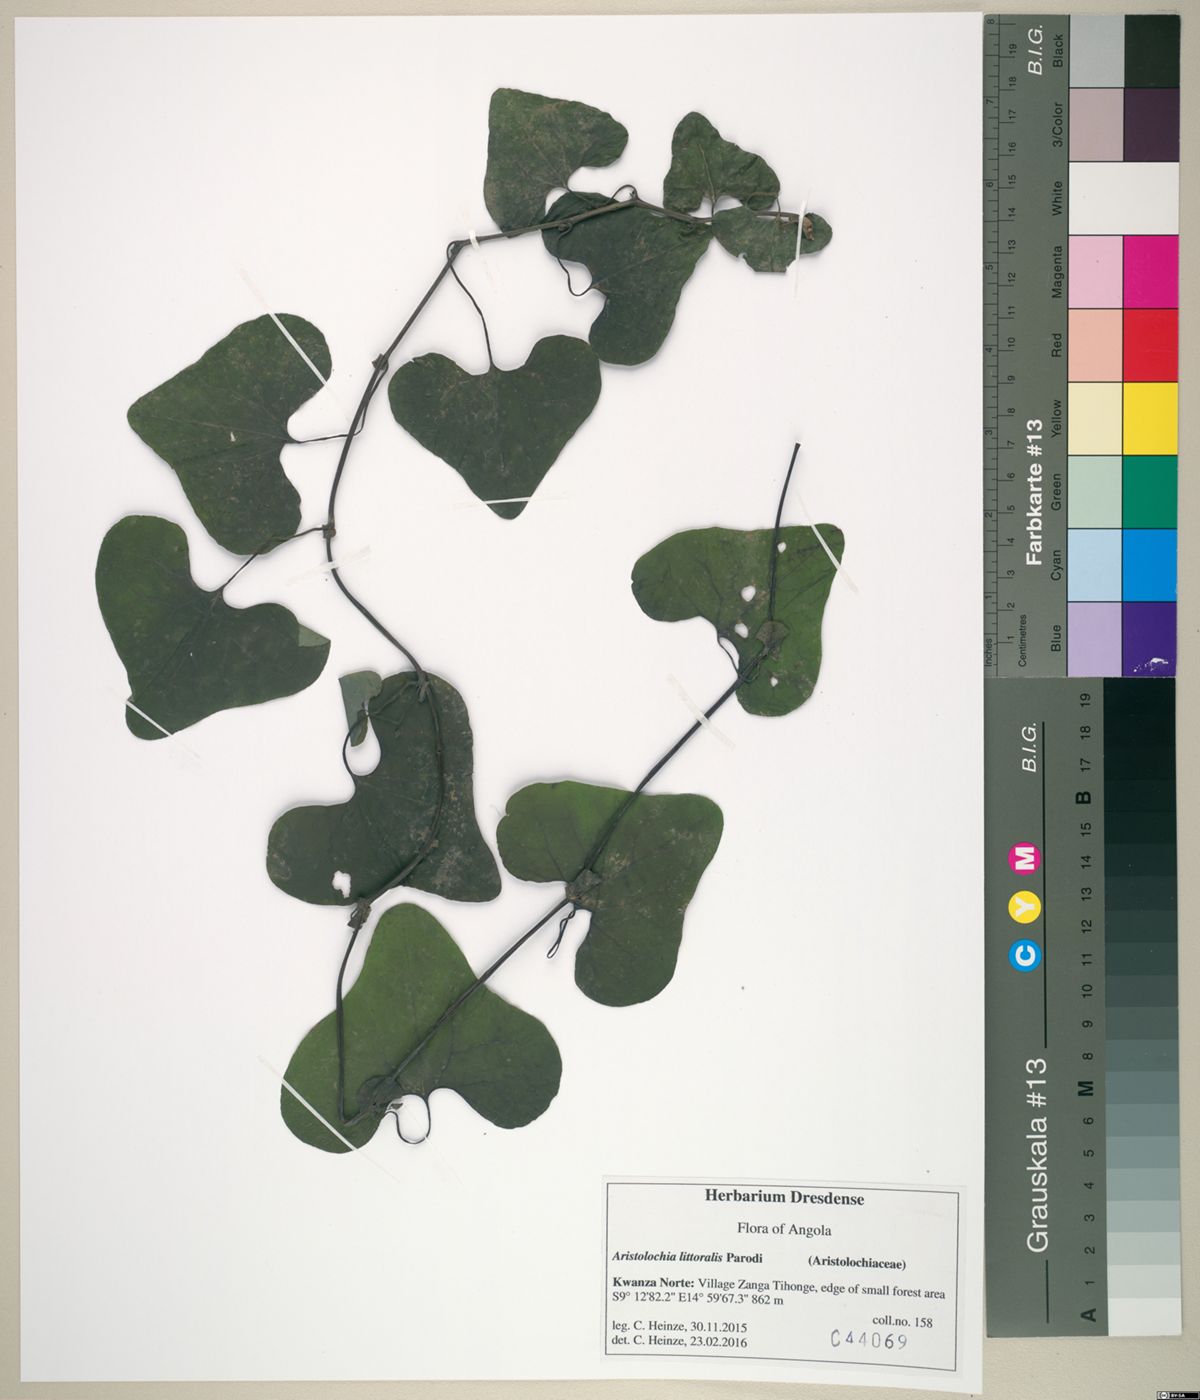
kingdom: Plantae
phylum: Tracheophyta
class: Magnoliopsida
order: Piperales
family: Aristolochiaceae
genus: Aristolochia
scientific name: Aristolochia littoralis
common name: Duck
